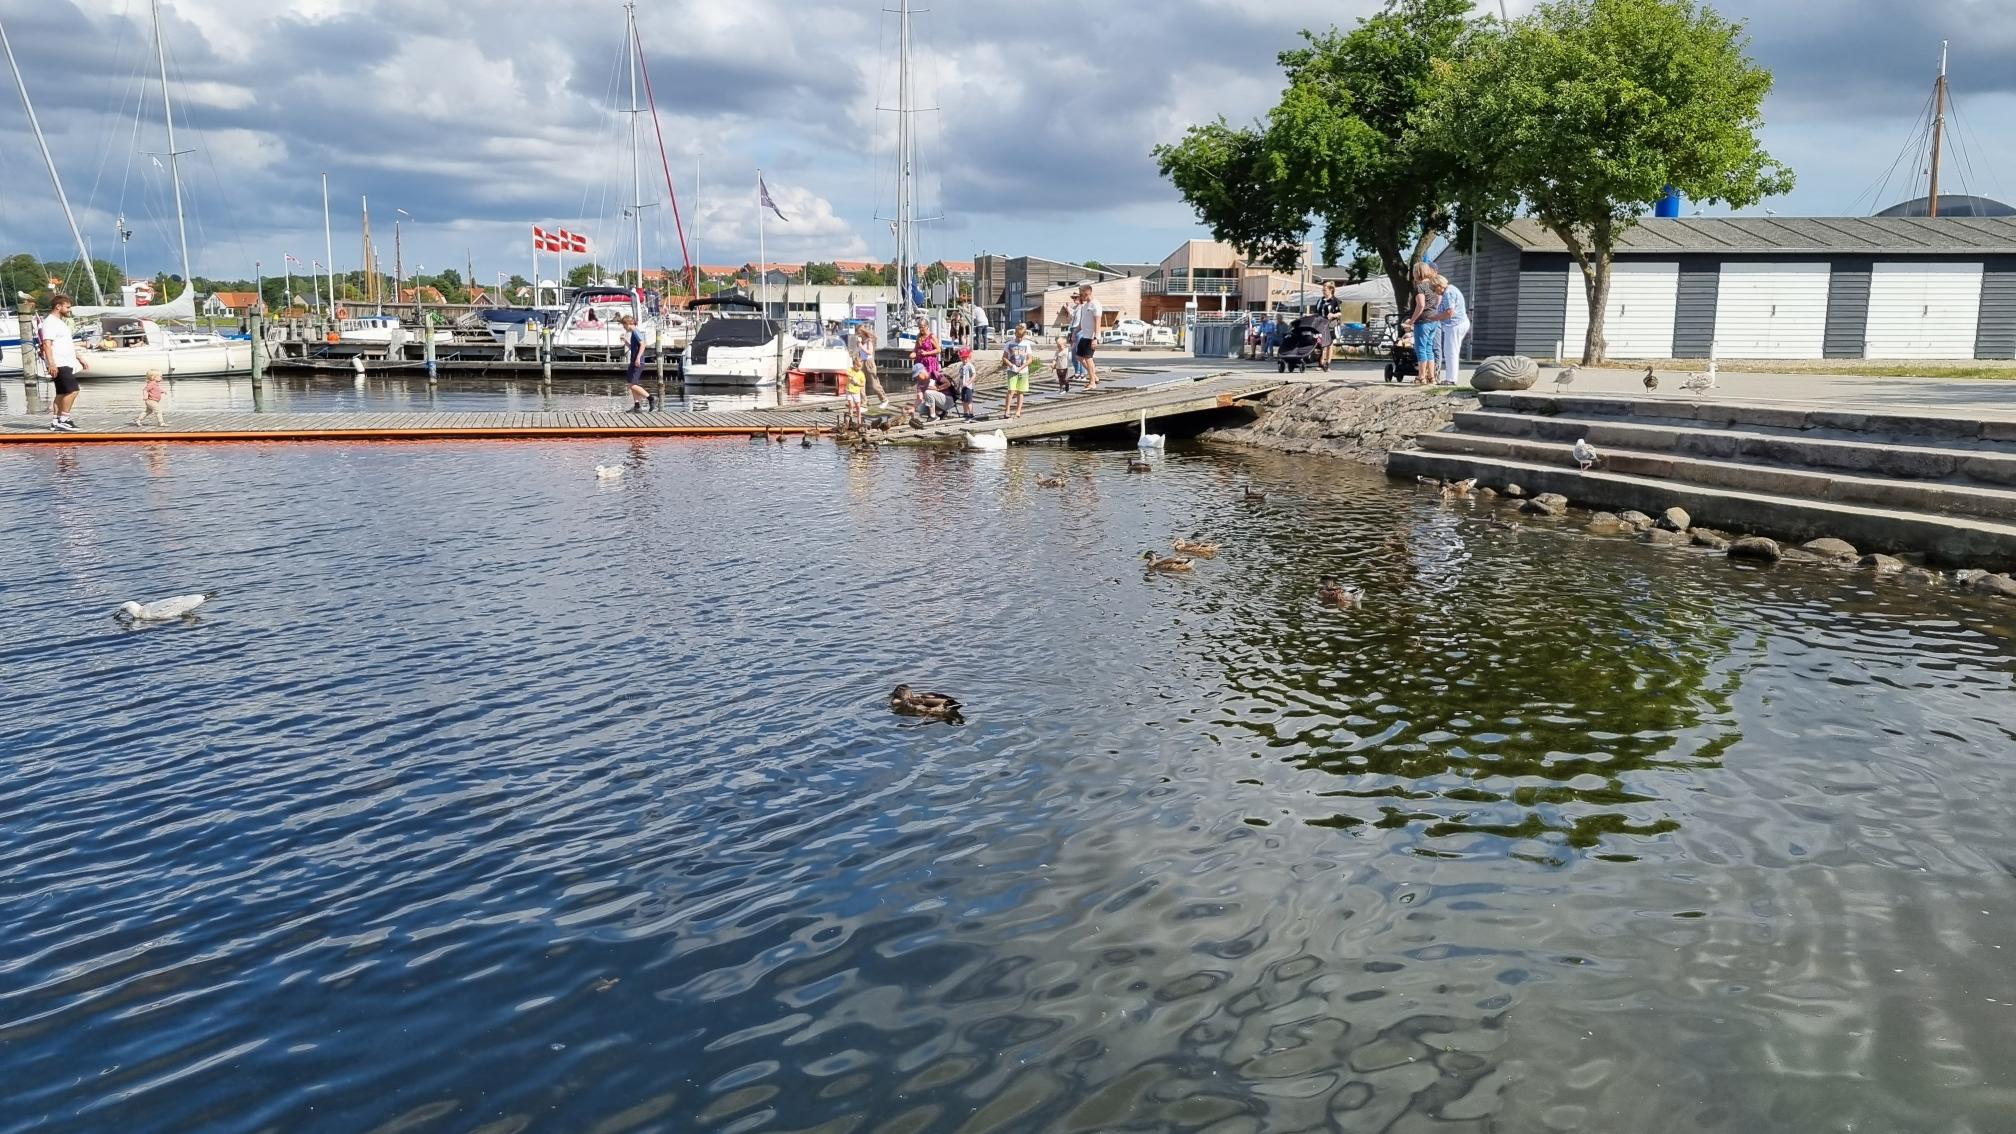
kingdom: Animalia
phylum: Chordata
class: Aves
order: Anseriformes
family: Anatidae
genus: Anas
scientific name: Anas platyrhynchos
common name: Gråand
